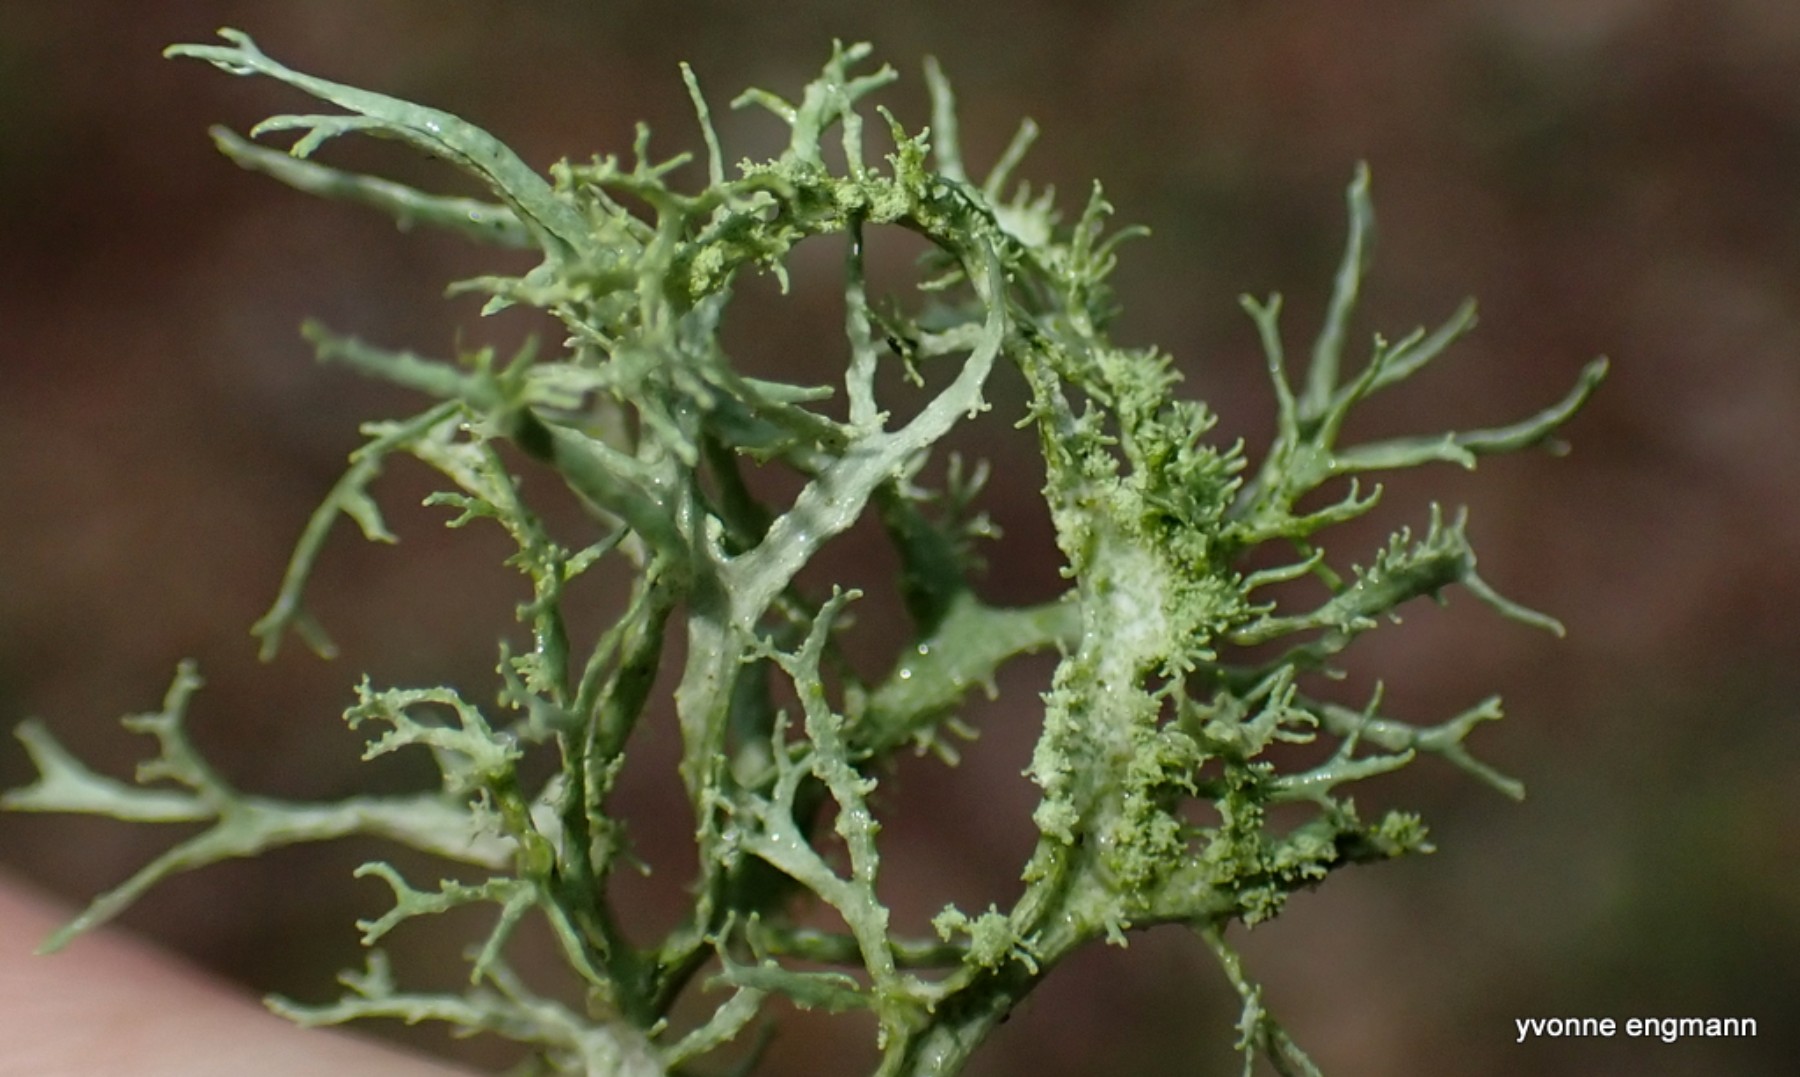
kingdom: Fungi
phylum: Ascomycota
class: Lecanoromycetes
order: Lecanorales
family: Ramalinaceae
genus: Ramalina
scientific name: Ramalina farinacea
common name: melet grenlav
